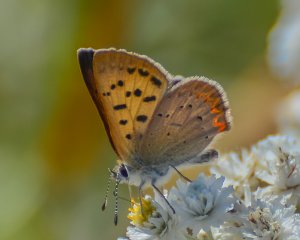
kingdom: Animalia
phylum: Arthropoda
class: Insecta
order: Lepidoptera
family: Sesiidae
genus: Sesia
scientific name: Sesia Lycaena helloides
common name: Purplish Copper
